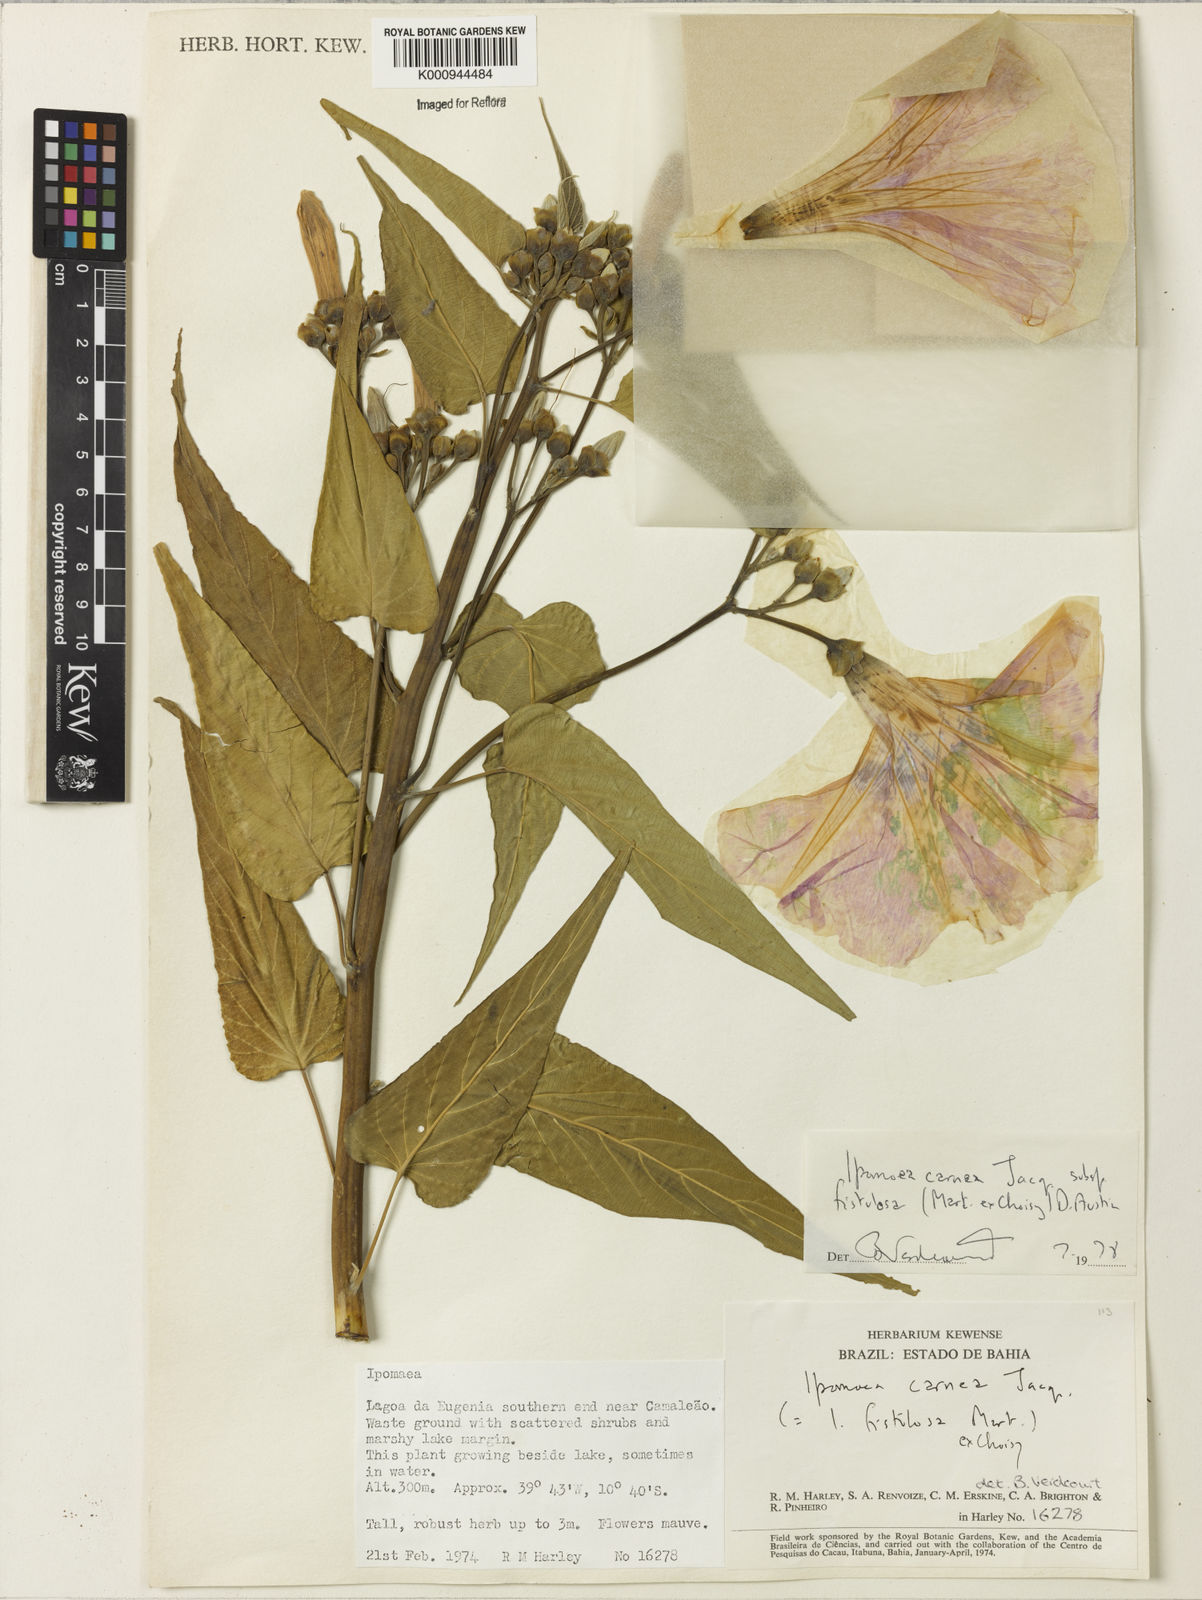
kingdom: Plantae
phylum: Tracheophyta
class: Magnoliopsida
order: Solanales
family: Convolvulaceae
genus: Ipomoea
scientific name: Ipomoea carnea
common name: Morning-glory
